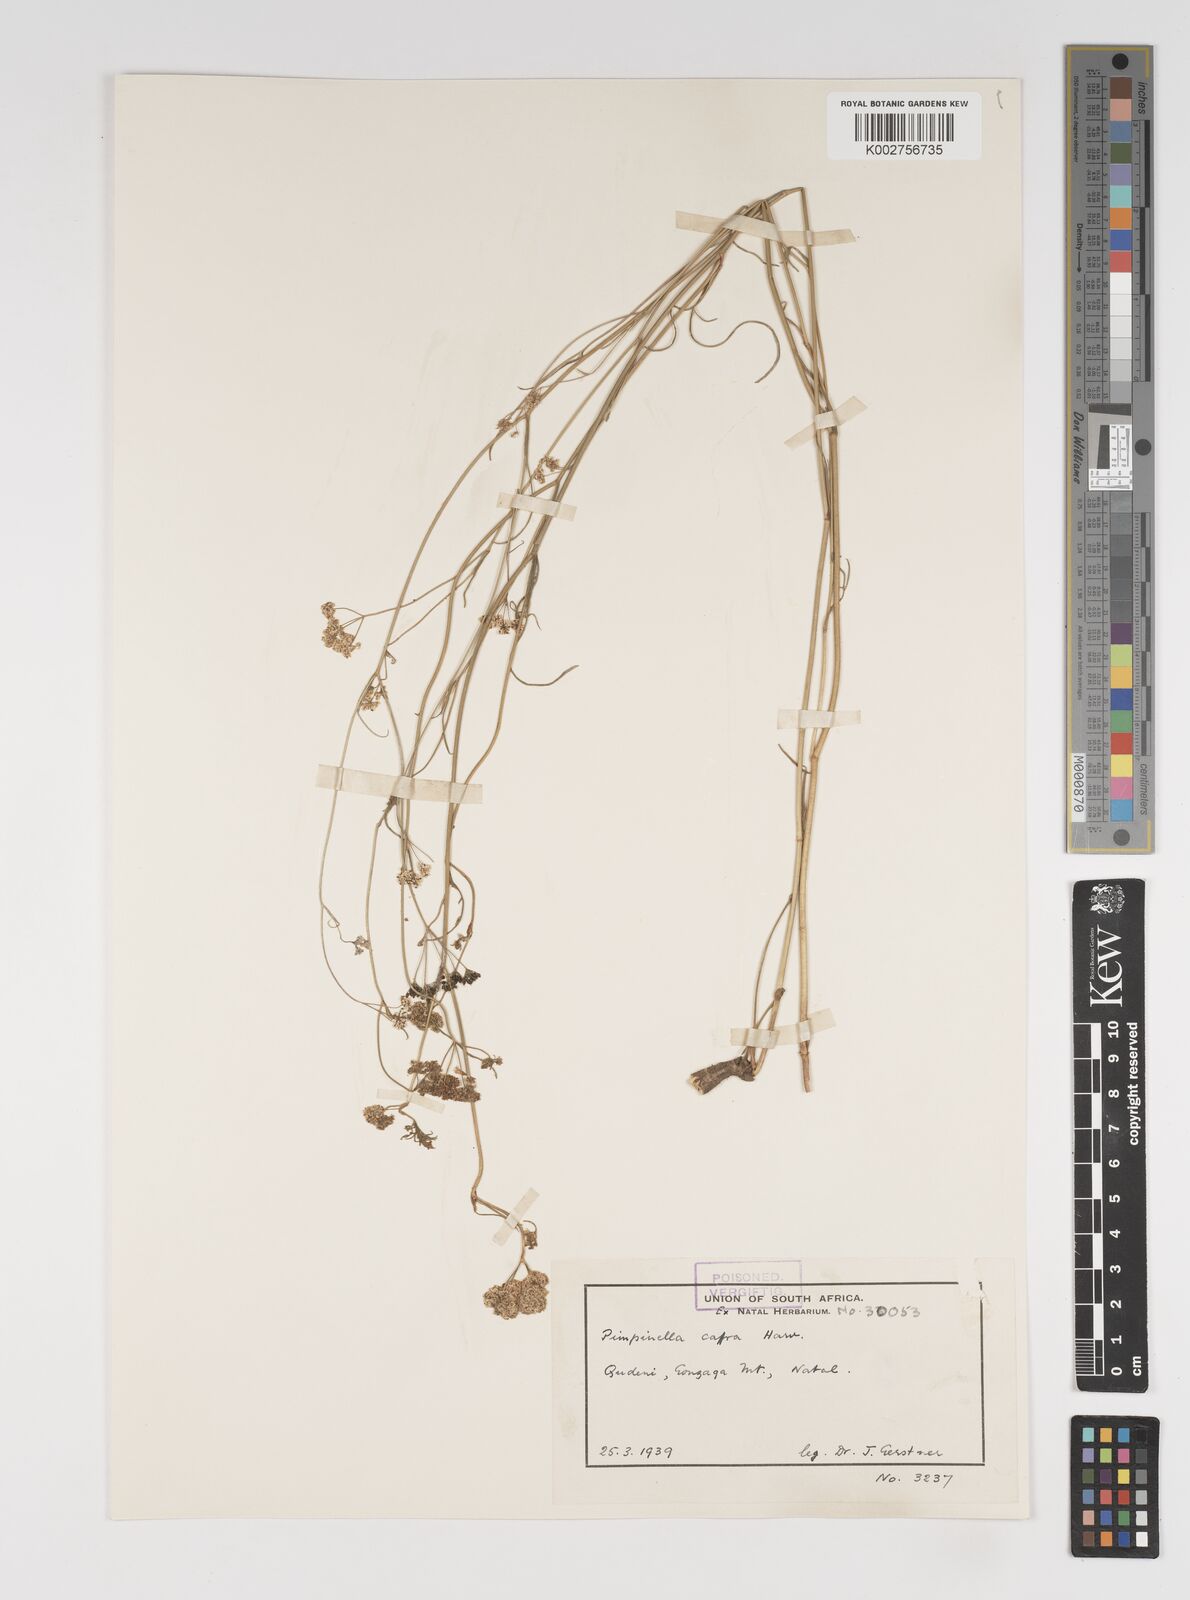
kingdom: Plantae
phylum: Tracheophyta
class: Magnoliopsida
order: Apiales
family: Apiaceae
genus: Pimpinella
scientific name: Pimpinella caffra
